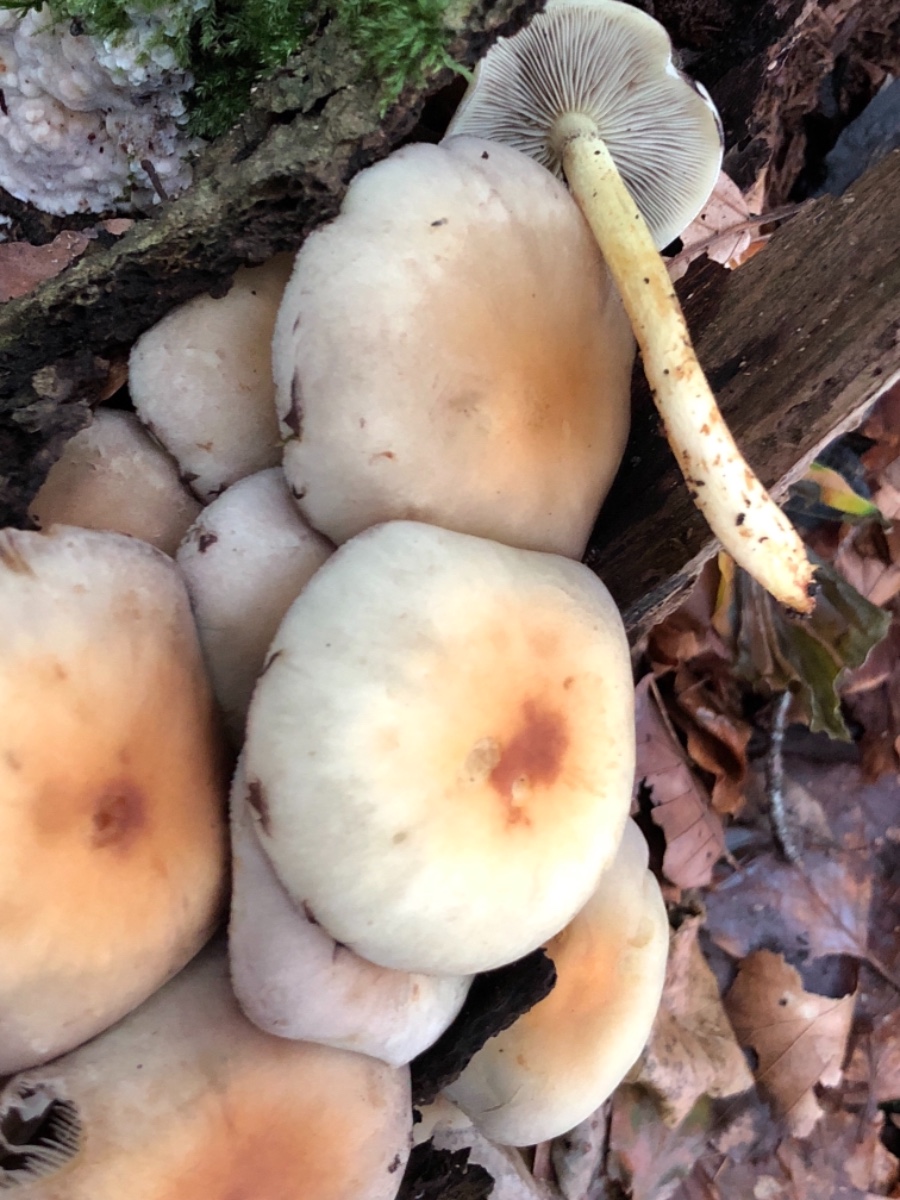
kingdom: Fungi
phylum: Basidiomycota
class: Agaricomycetes
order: Agaricales
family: Strophariaceae
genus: Hypholoma
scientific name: Hypholoma fasciculare
